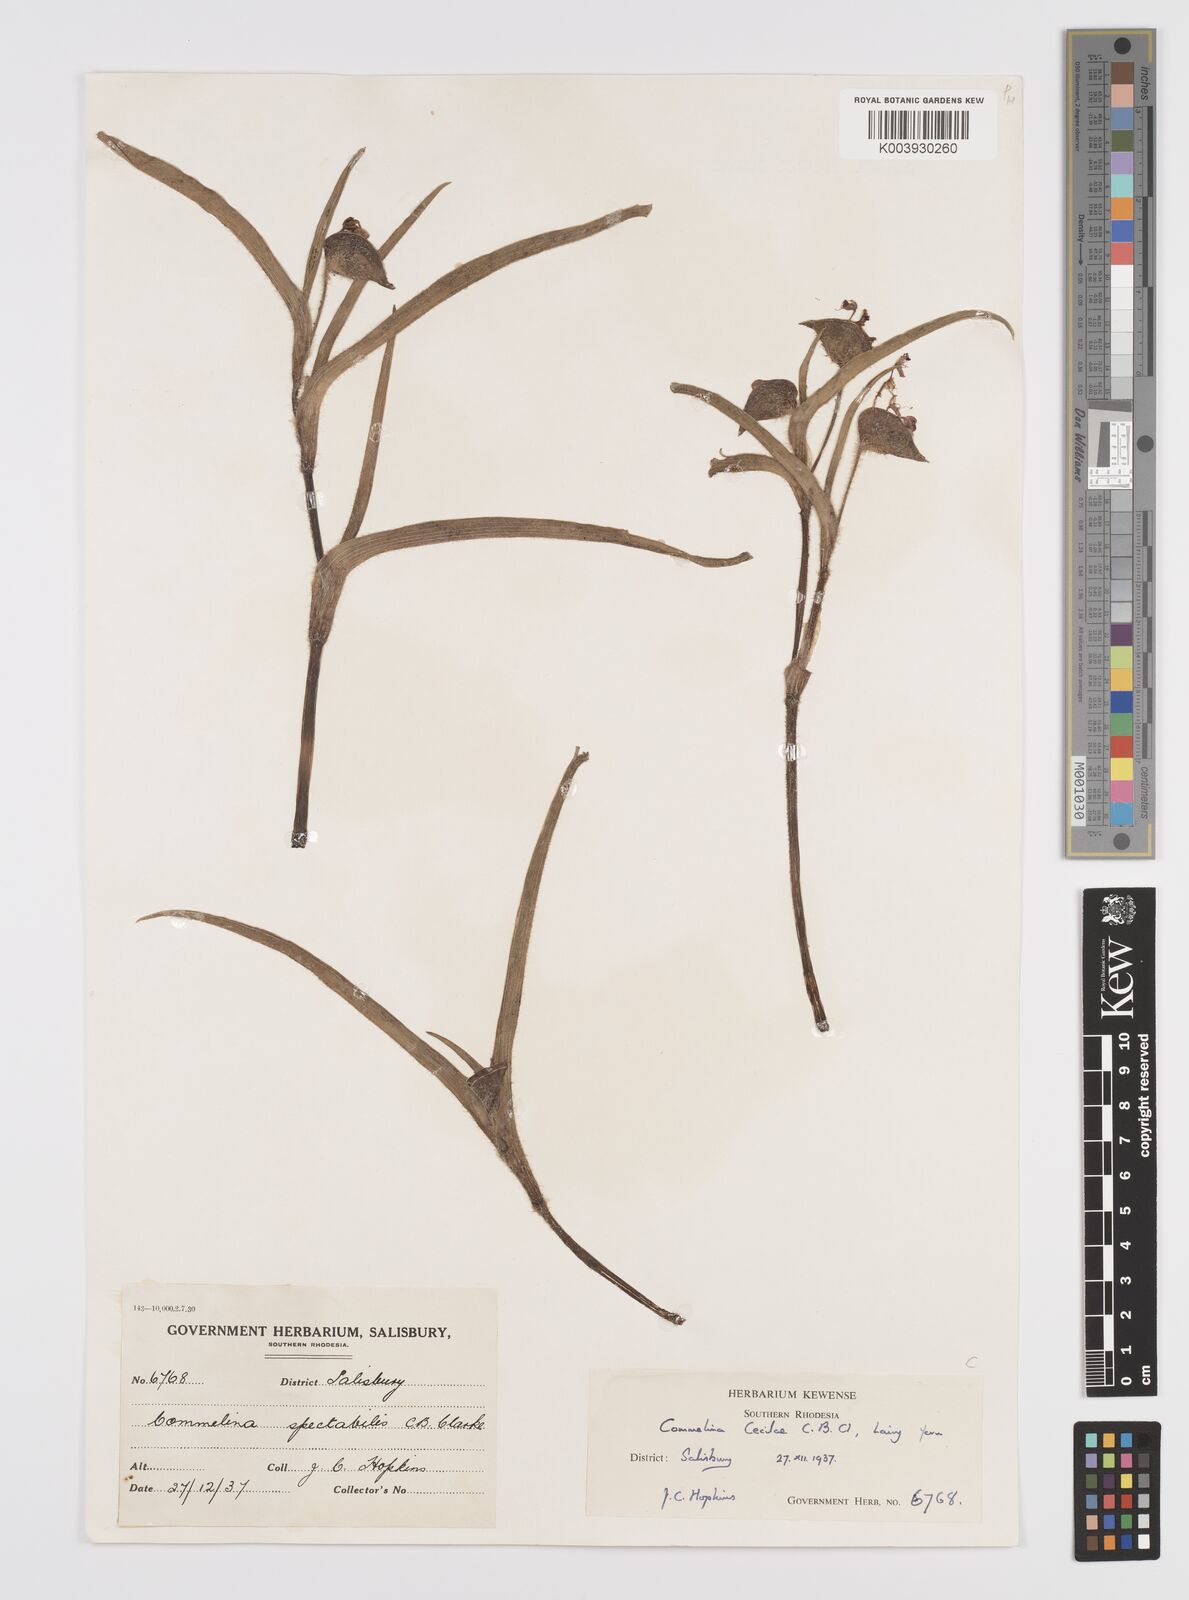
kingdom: Plantae
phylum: Tracheophyta
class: Liliopsida
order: Commelinales
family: Commelinaceae
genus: Commelina
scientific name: Commelina schweinfurthii
